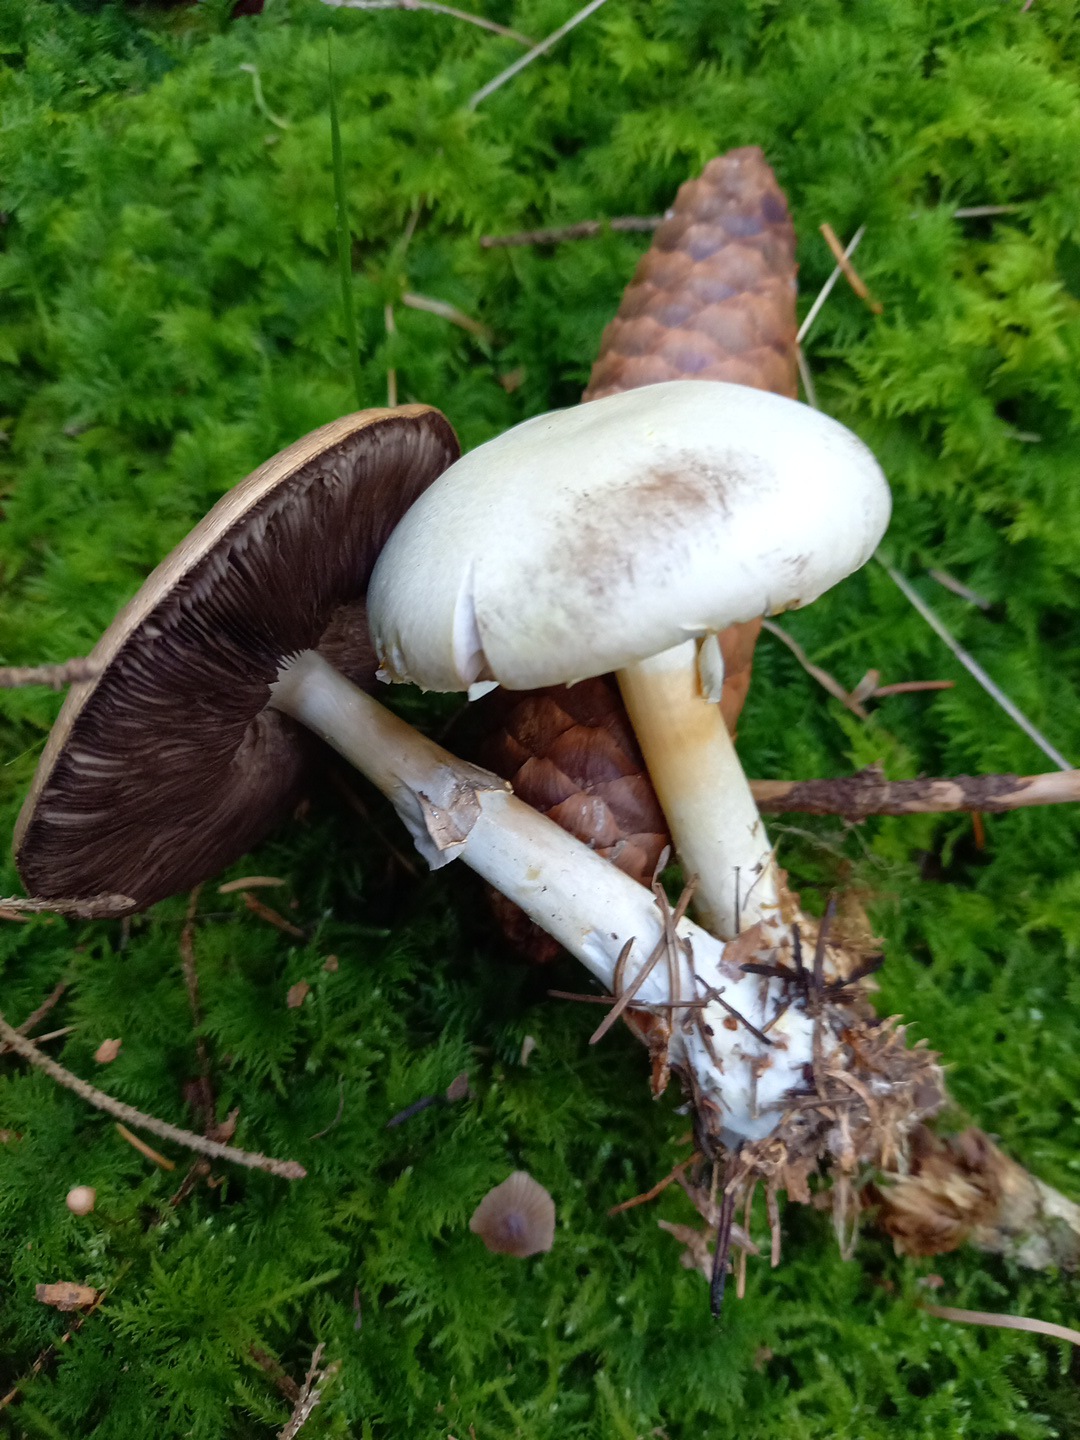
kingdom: Fungi
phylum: Basidiomycota
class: Agaricomycetes
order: Agaricales
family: Agaricaceae
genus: Agaricus
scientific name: Agaricus sylvicola
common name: skiveknoldet champignon
